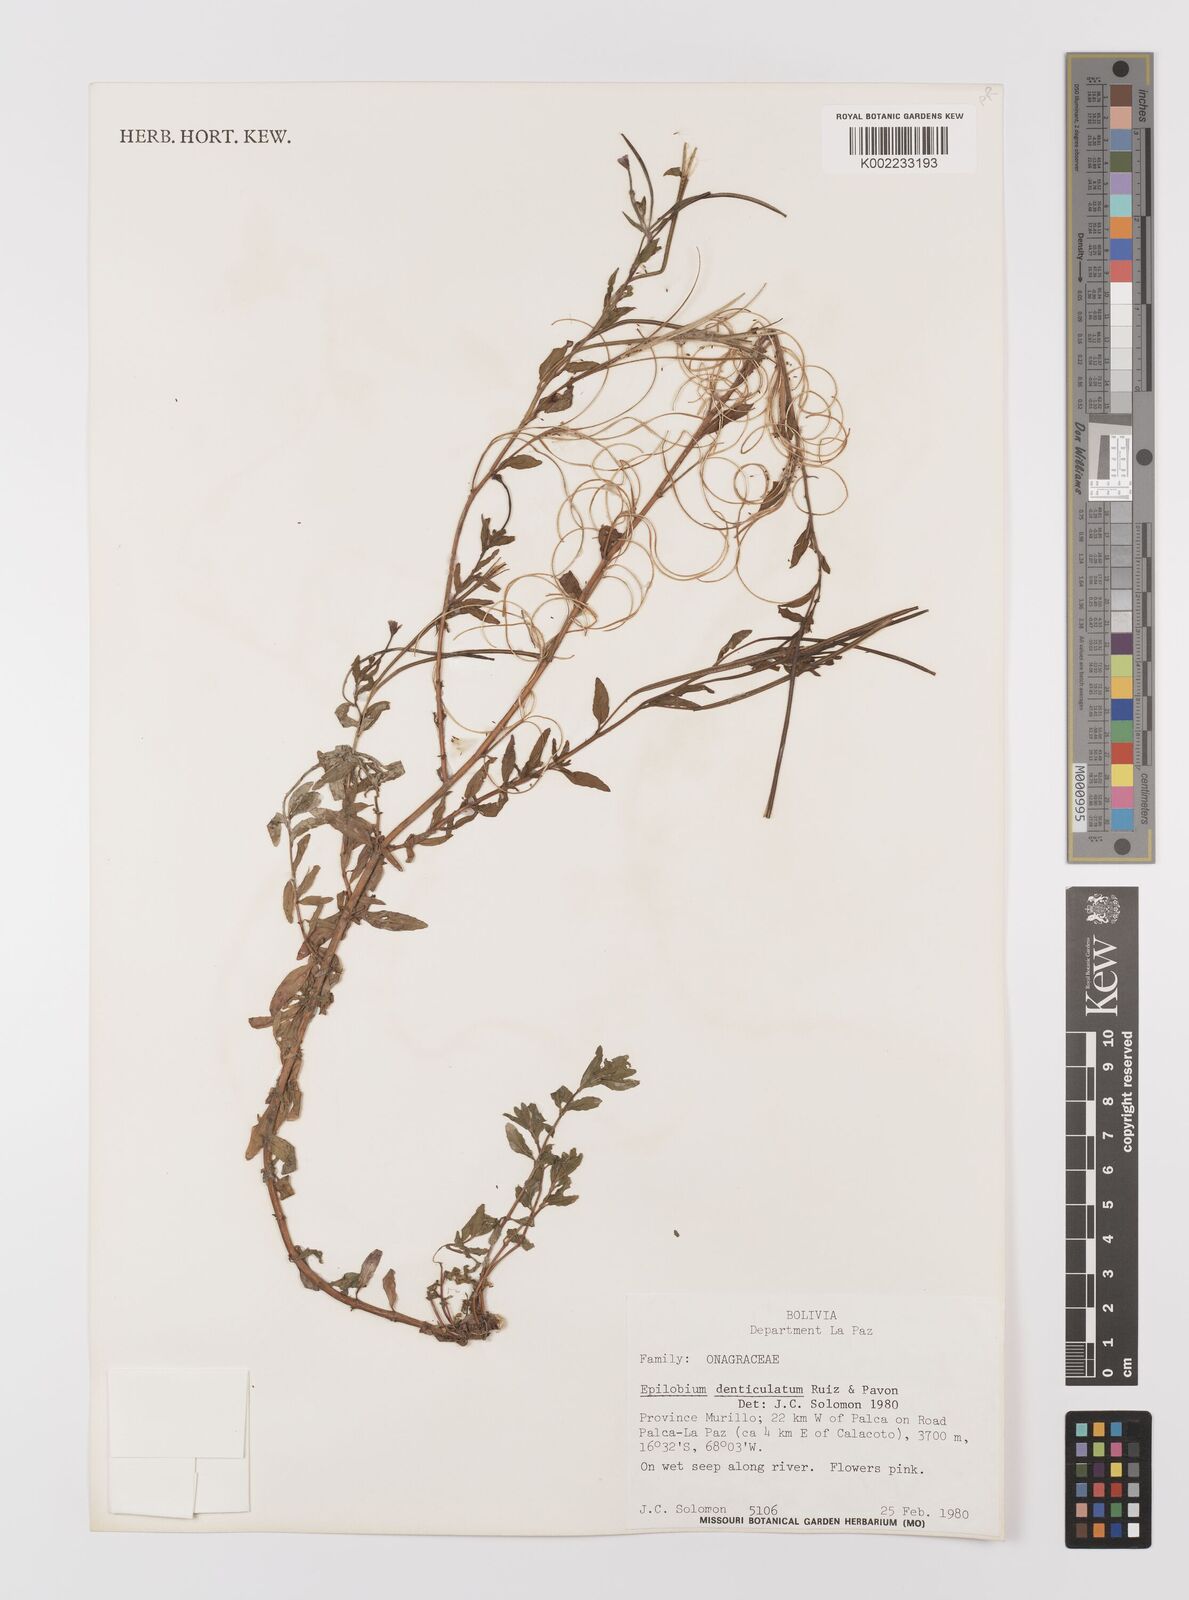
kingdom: Plantae
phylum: Tracheophyta
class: Magnoliopsida
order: Myrtales
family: Onagraceae
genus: Epilobium
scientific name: Epilobium denticulatum
